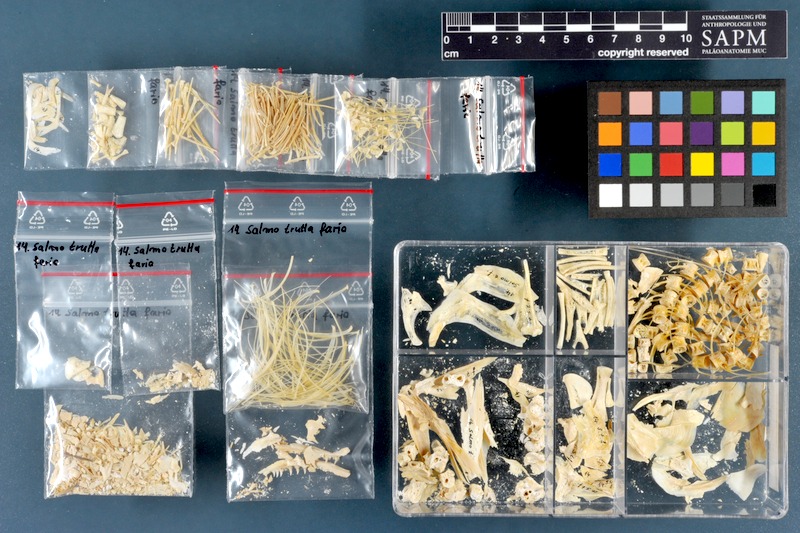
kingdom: Animalia
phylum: Chordata
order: Salmoniformes
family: Salmonidae
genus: Salmo
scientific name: Salmo trutta
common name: Brown trout
